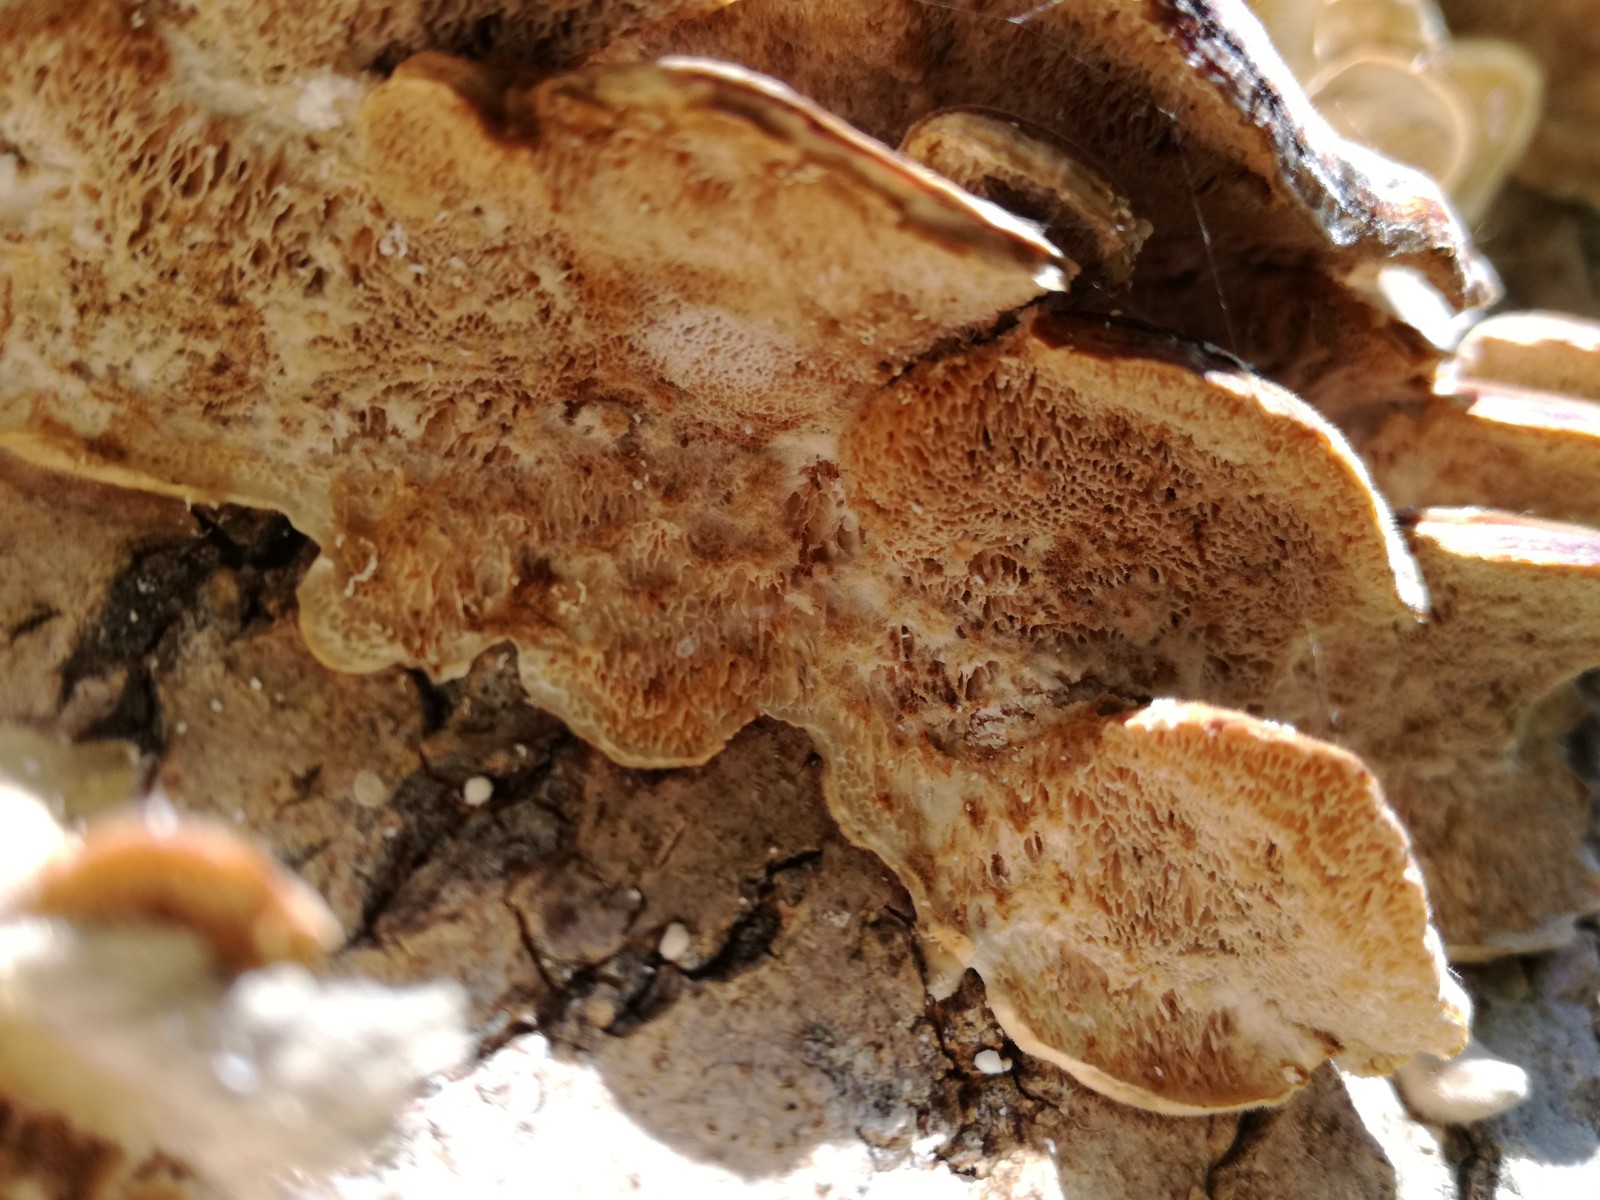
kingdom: Fungi
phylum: Basidiomycota
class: Agaricomycetes
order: Polyporales
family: Polyporaceae
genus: Trametes
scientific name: Trametes
